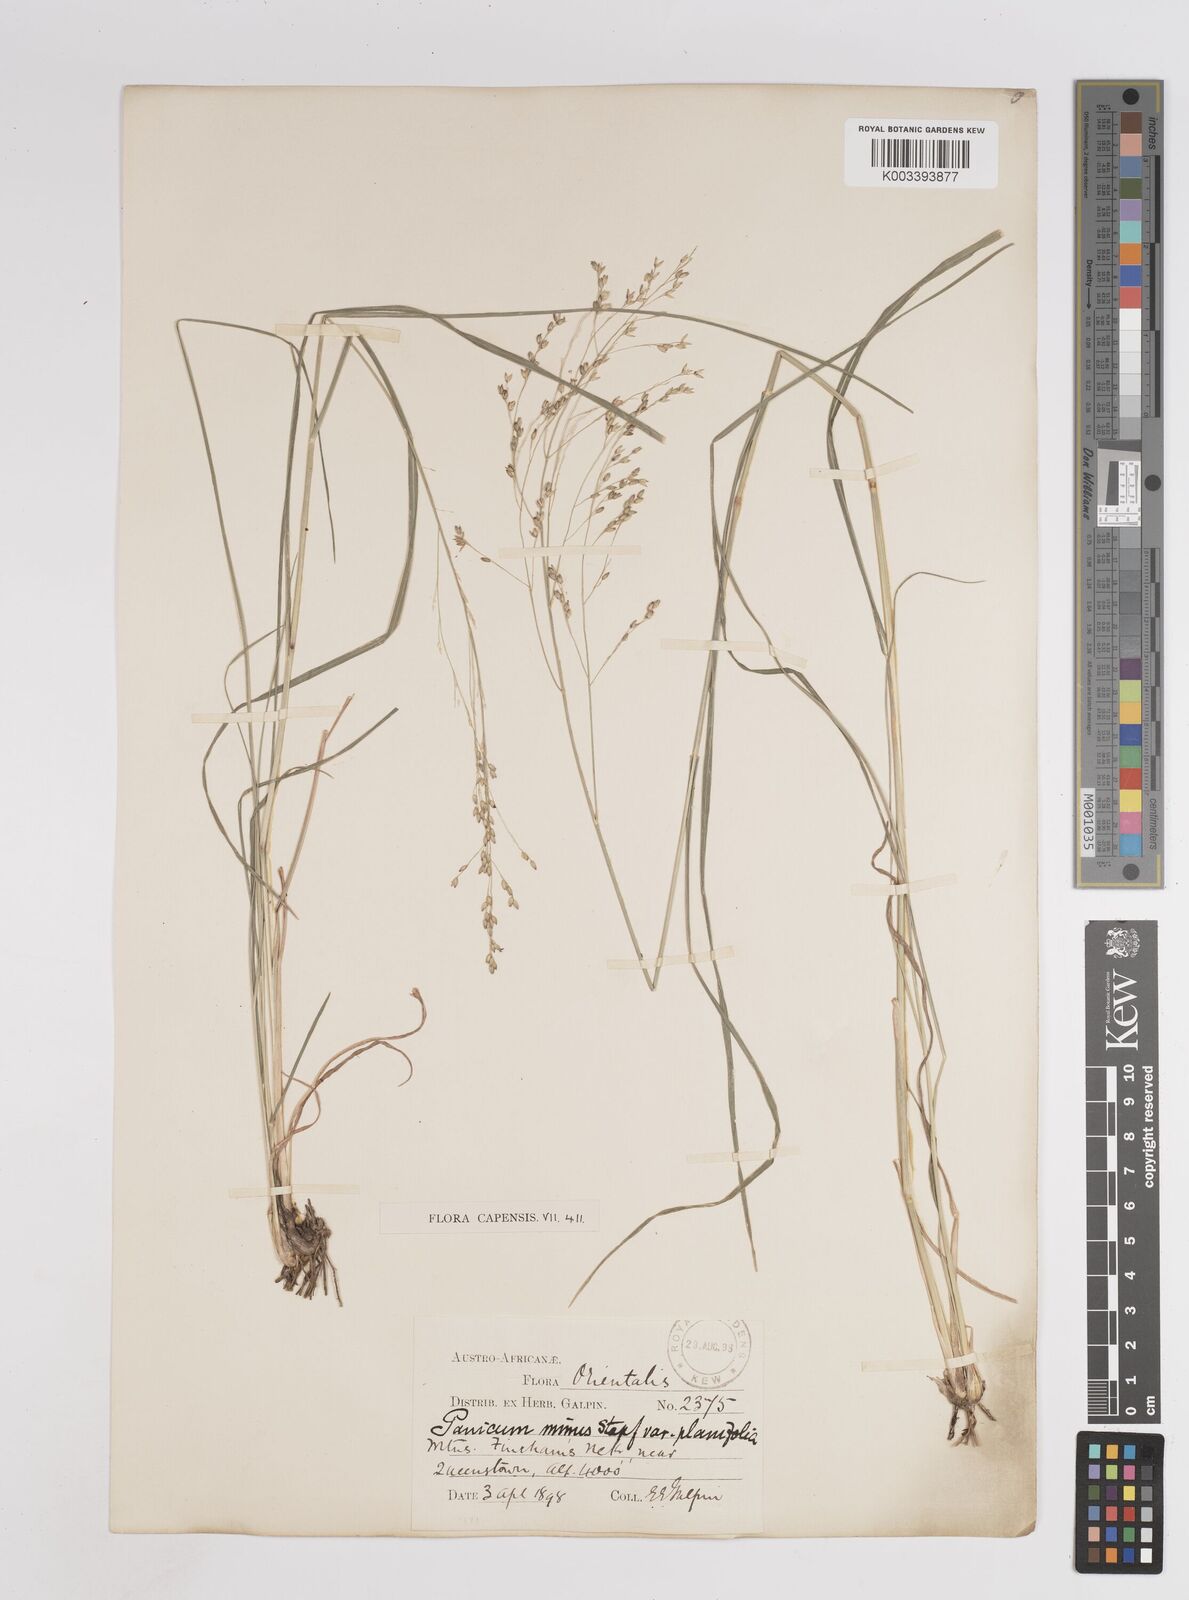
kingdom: Plantae
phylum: Tracheophyta
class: Liliopsida
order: Poales
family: Poaceae
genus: Panicum
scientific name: Panicum stapfianum
